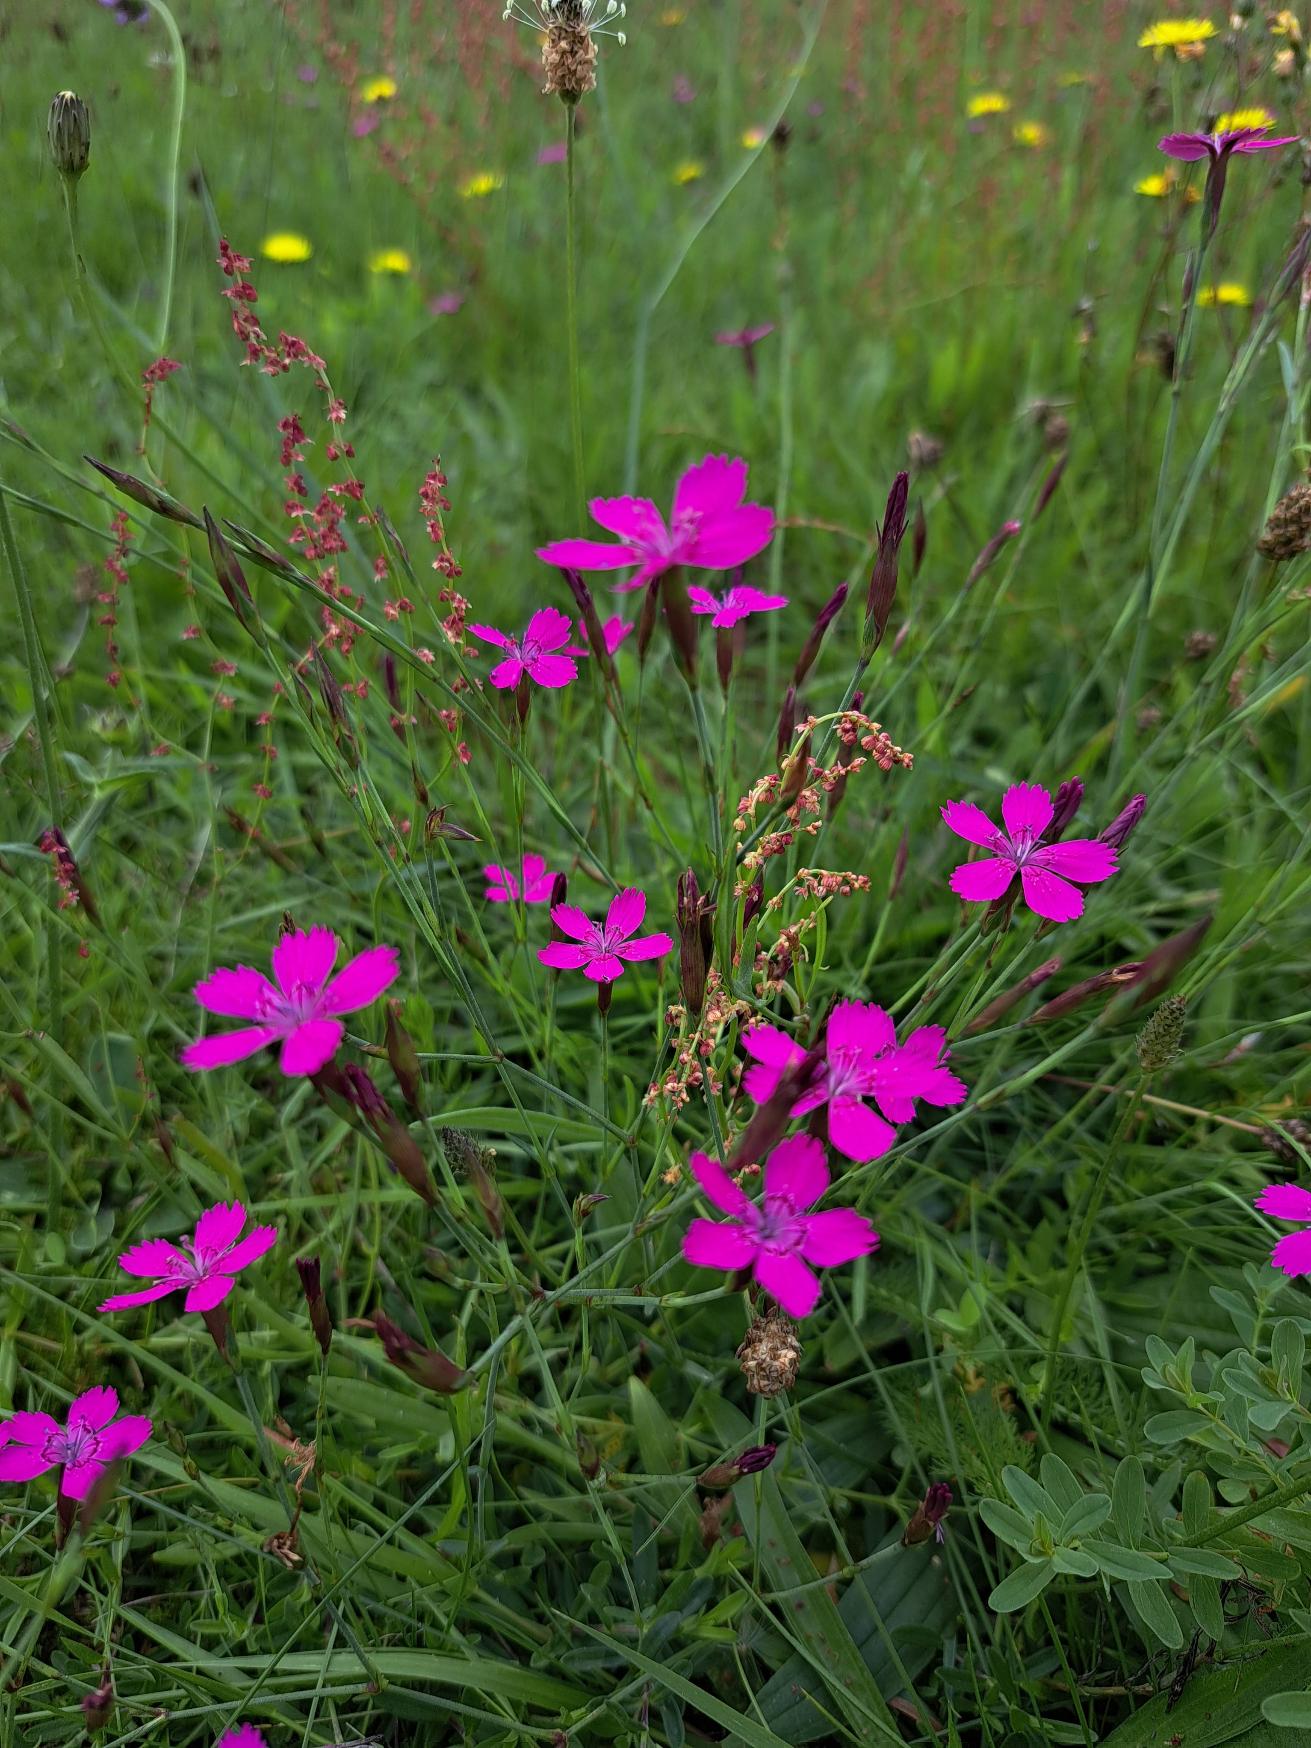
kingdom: Plantae
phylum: Tracheophyta
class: Magnoliopsida
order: Caryophyllales
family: Caryophyllaceae
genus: Dianthus
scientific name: Dianthus deltoides
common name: Bakke-nellike
